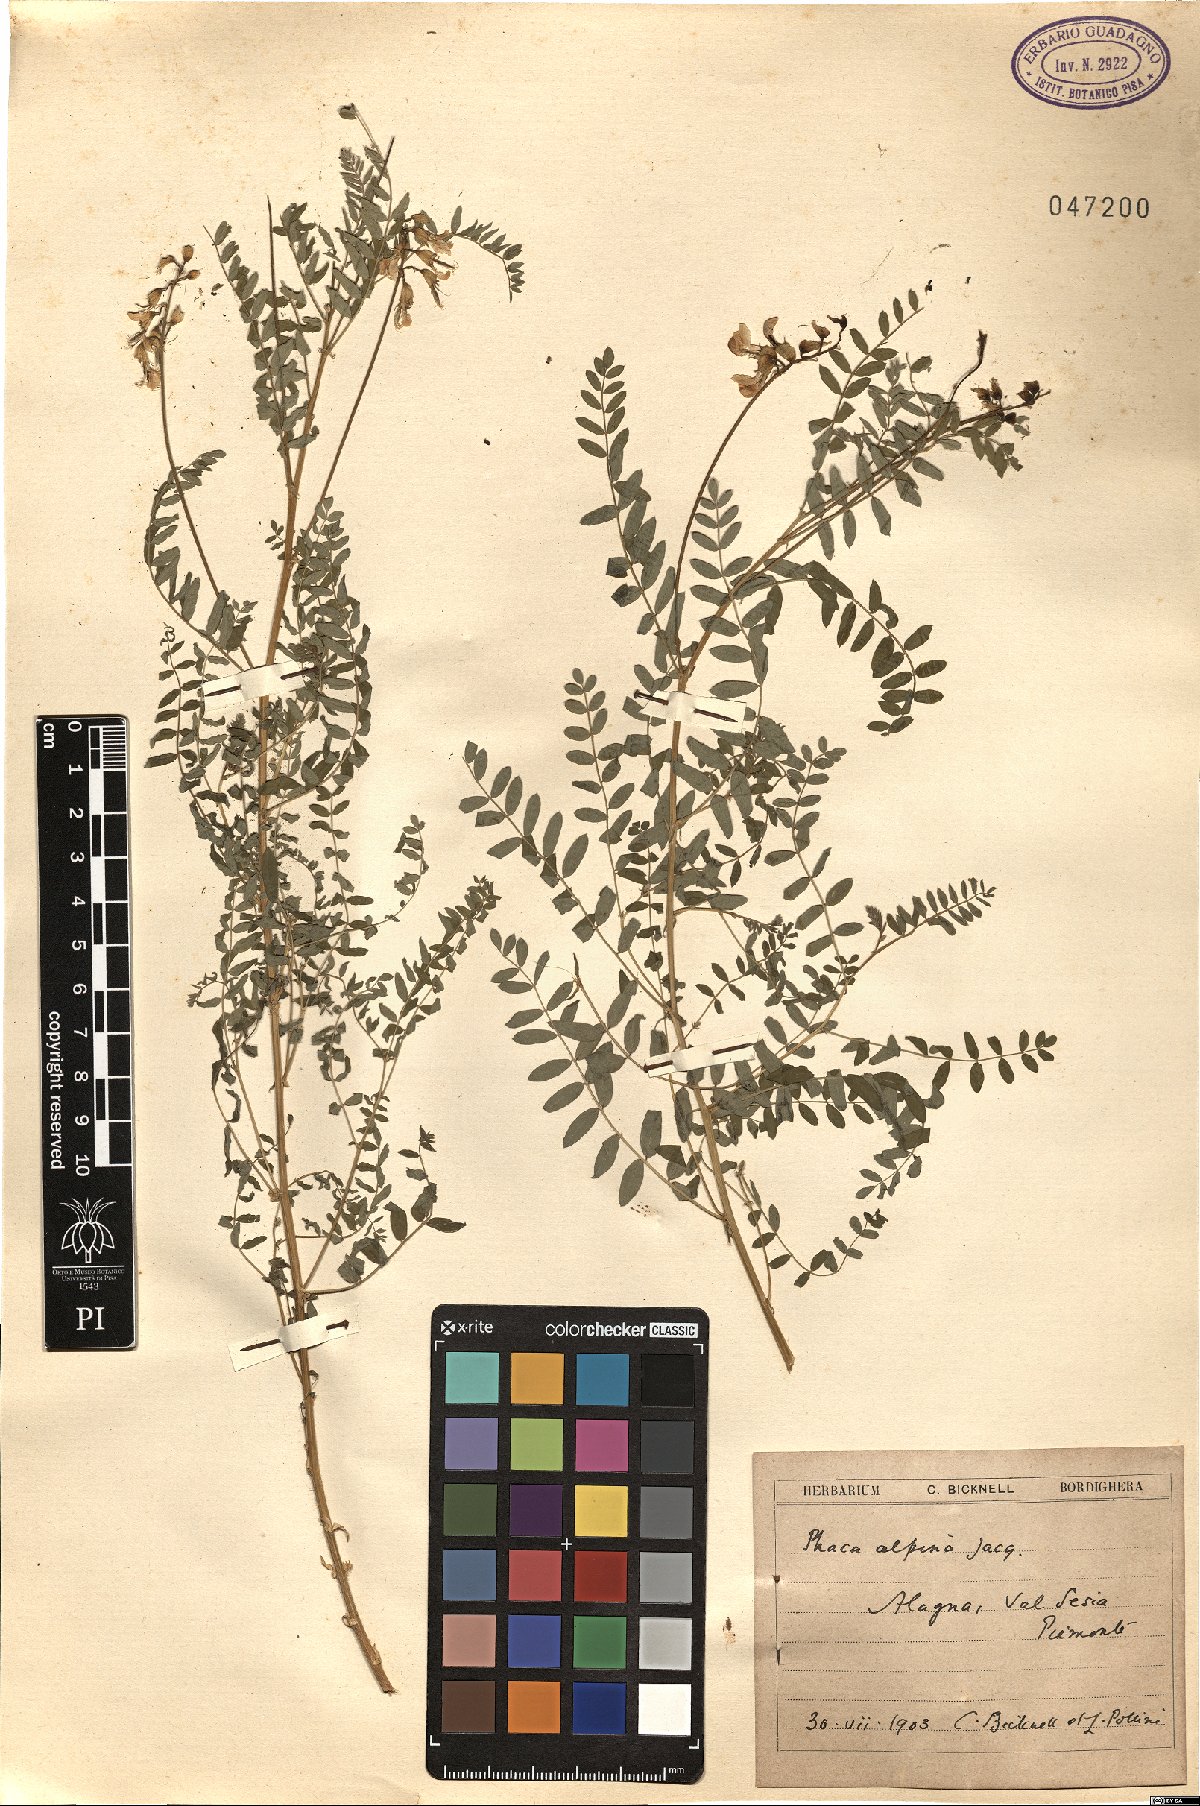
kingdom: Plantae
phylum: Tracheophyta
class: Magnoliopsida
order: Fabales
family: Fabaceae
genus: Astragalus
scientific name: Astragalus penduliflorus
